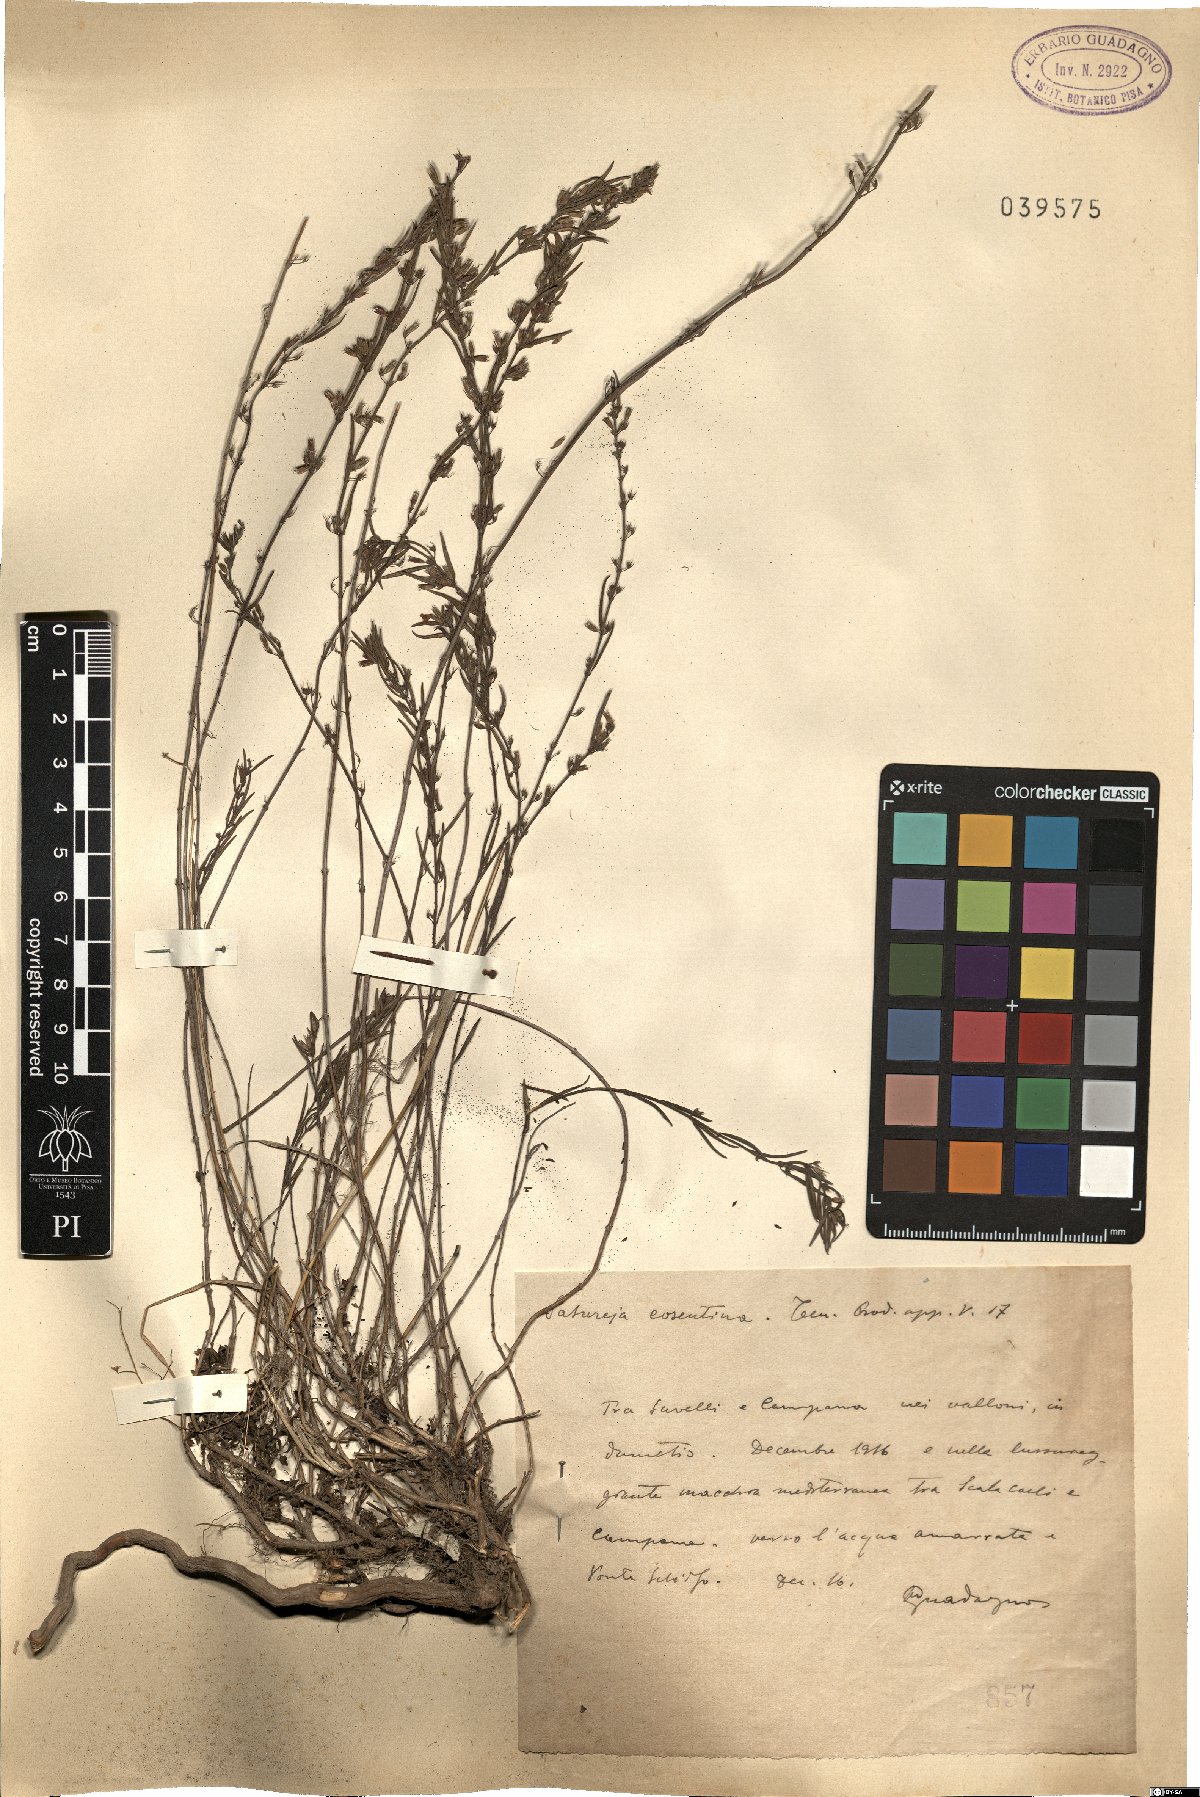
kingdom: Plantae
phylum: Tracheophyta
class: Magnoliopsida
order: Lamiales
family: Lamiaceae
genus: Micromeria
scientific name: Micromeria graeca
